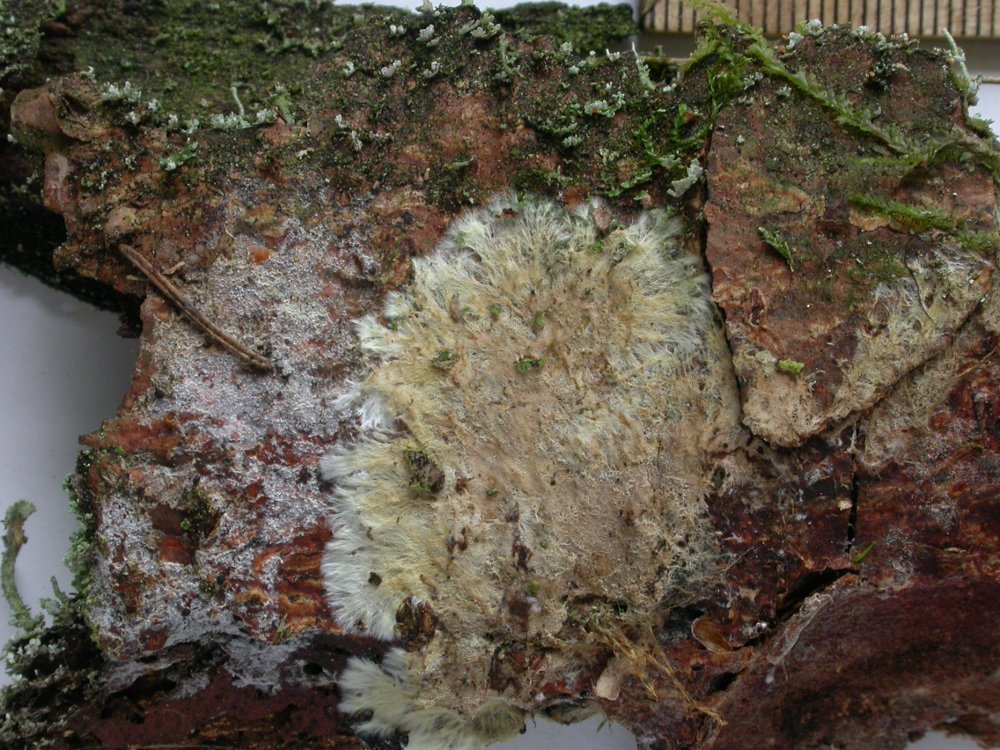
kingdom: Fungi
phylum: Basidiomycota
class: Agaricomycetes
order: Russulales
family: Xenasmataceae
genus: Xenasmatella
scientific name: Xenasmatella vaga
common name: svovl-strenghinde
